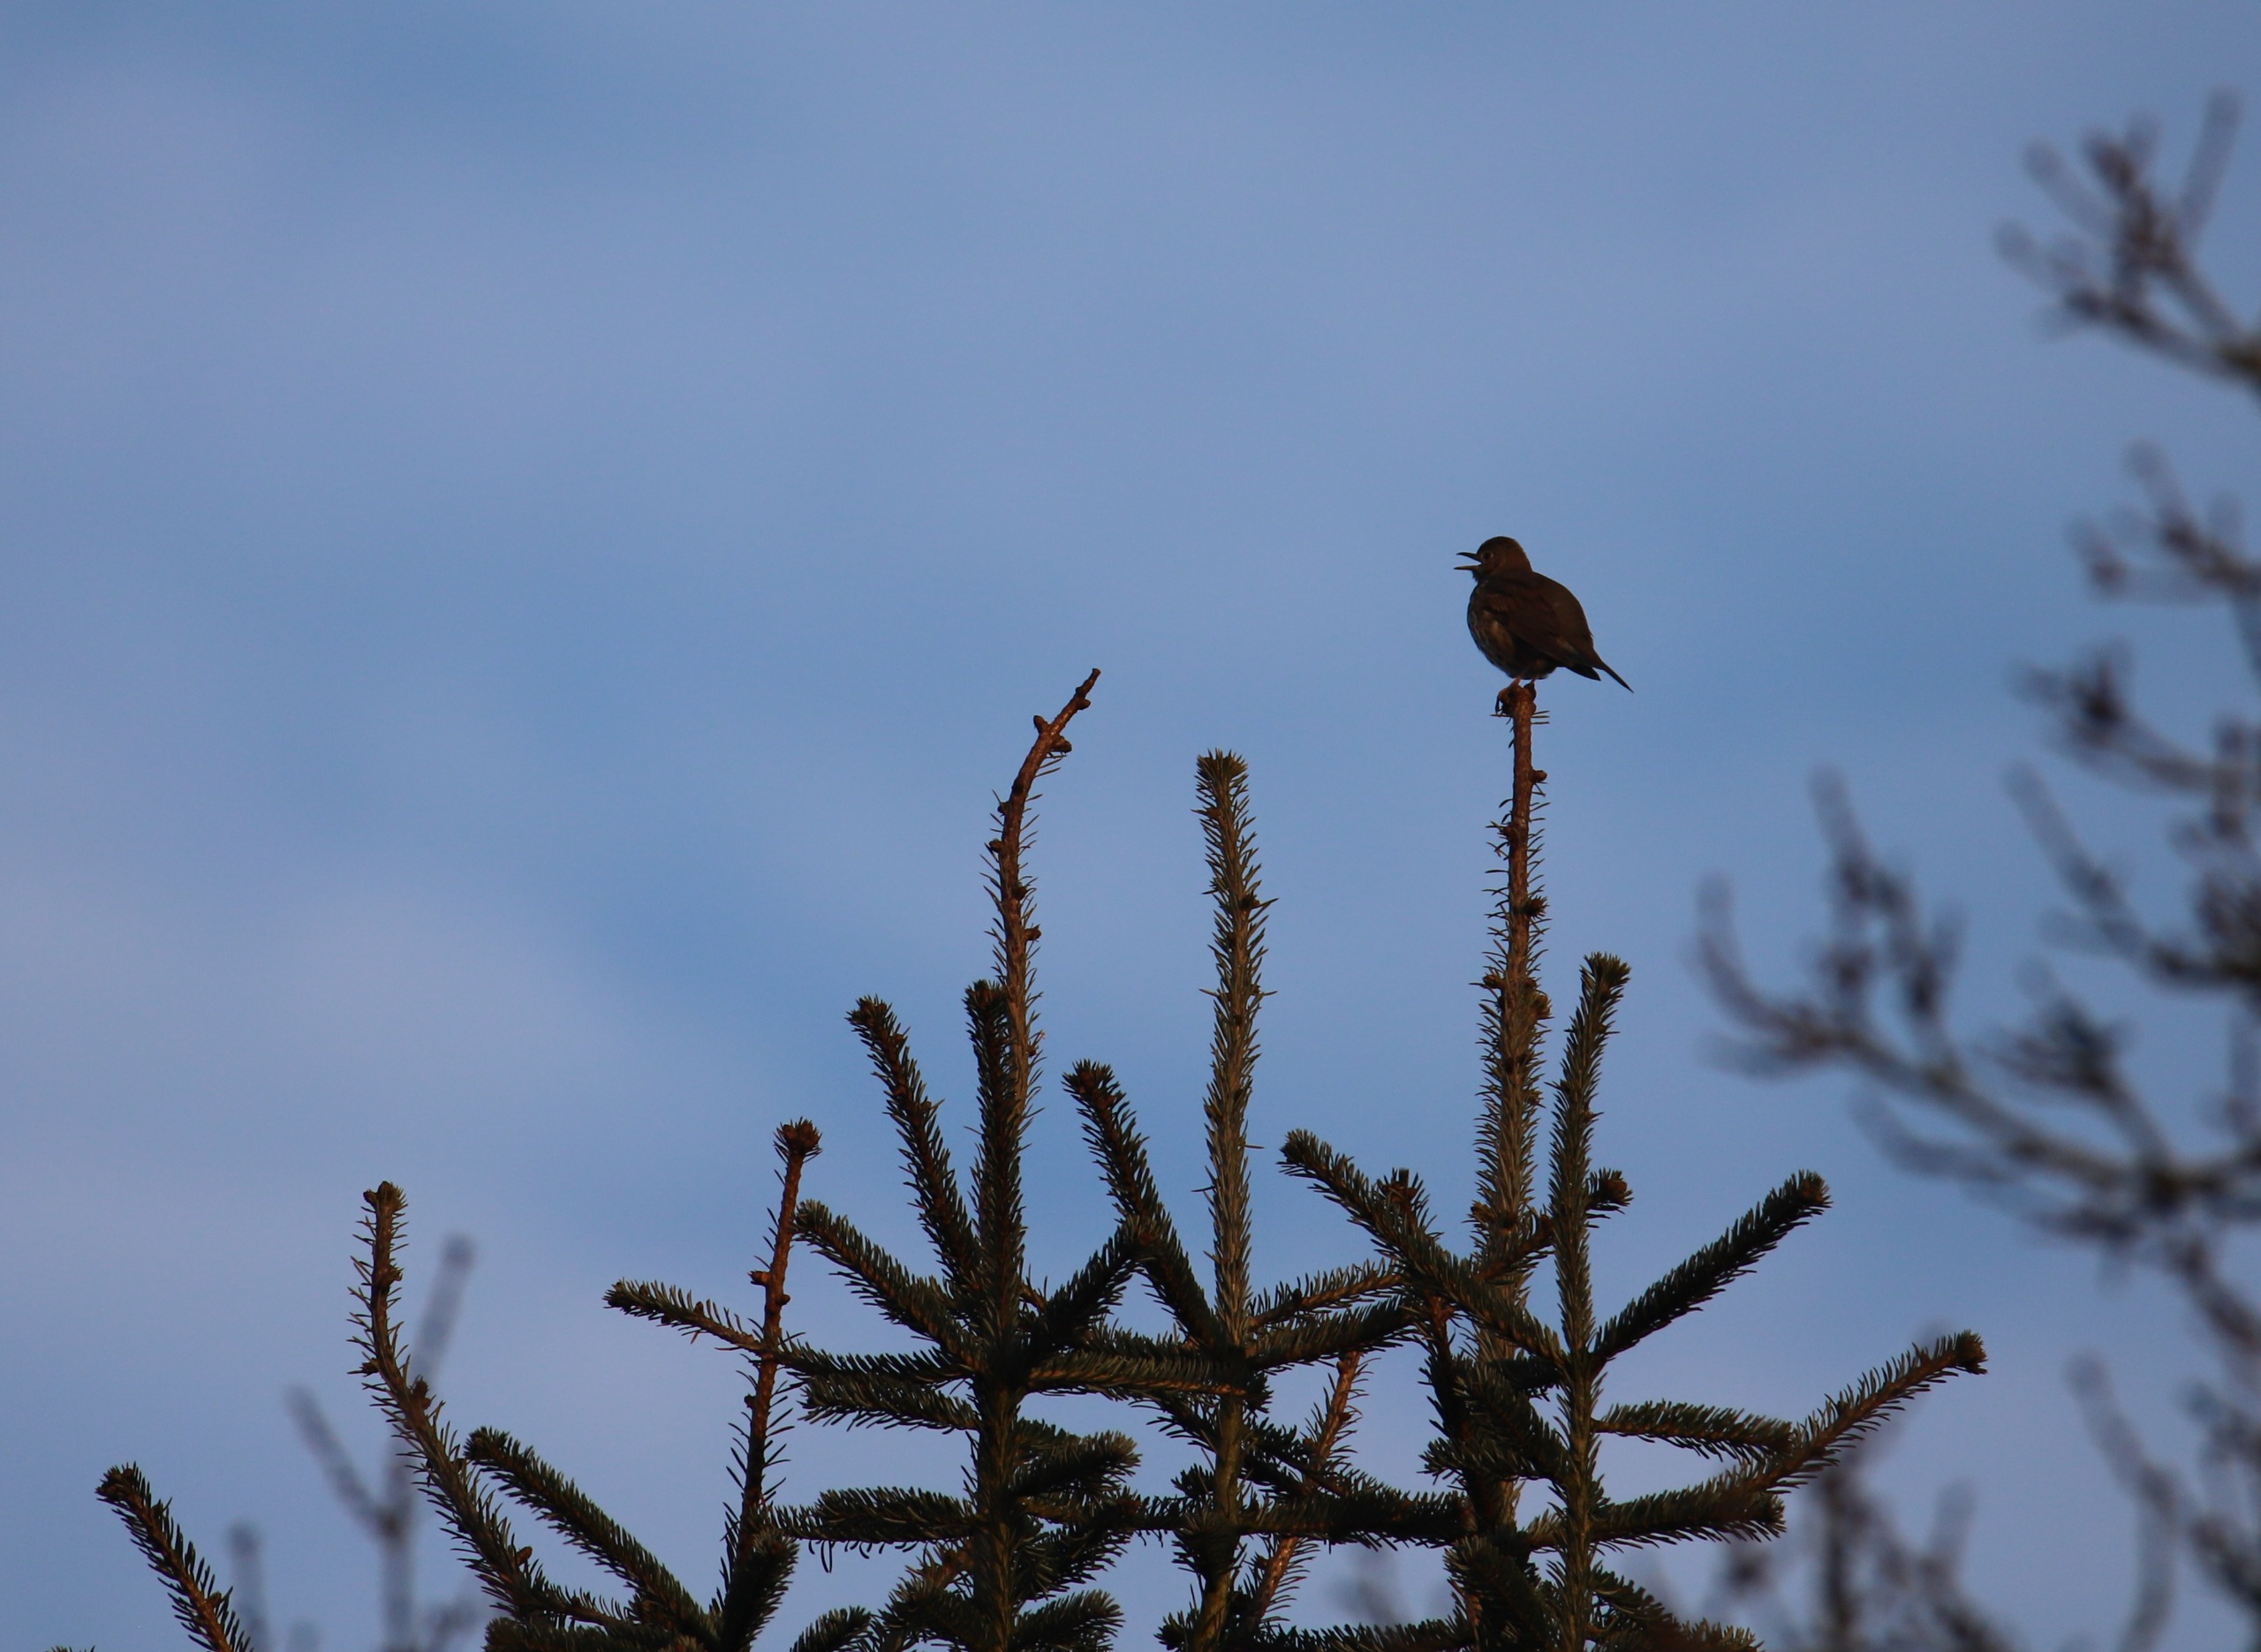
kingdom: Animalia
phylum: Chordata
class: Aves
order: Passeriformes
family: Turdidae
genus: Turdus
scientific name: Turdus philomelos
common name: Sangdrossel
